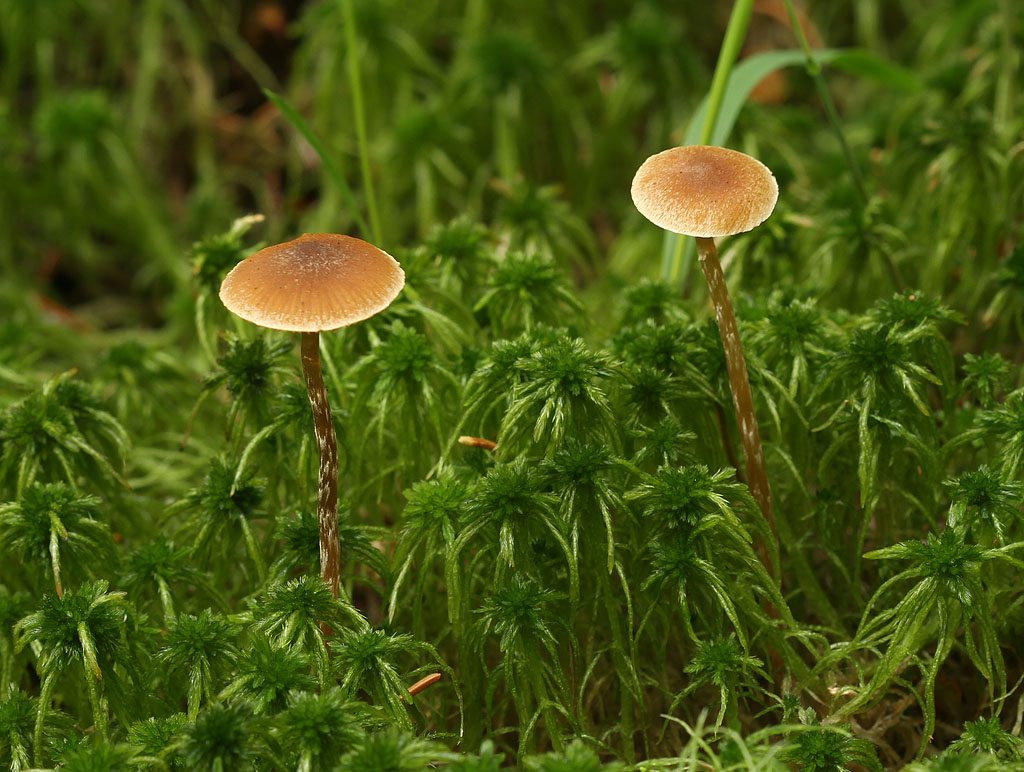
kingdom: Fungi
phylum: Basidiomycota
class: Agaricomycetes
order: Agaricales
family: Hymenogastraceae
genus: Galerina
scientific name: Galerina paludosa
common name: mose-hjelmhat
